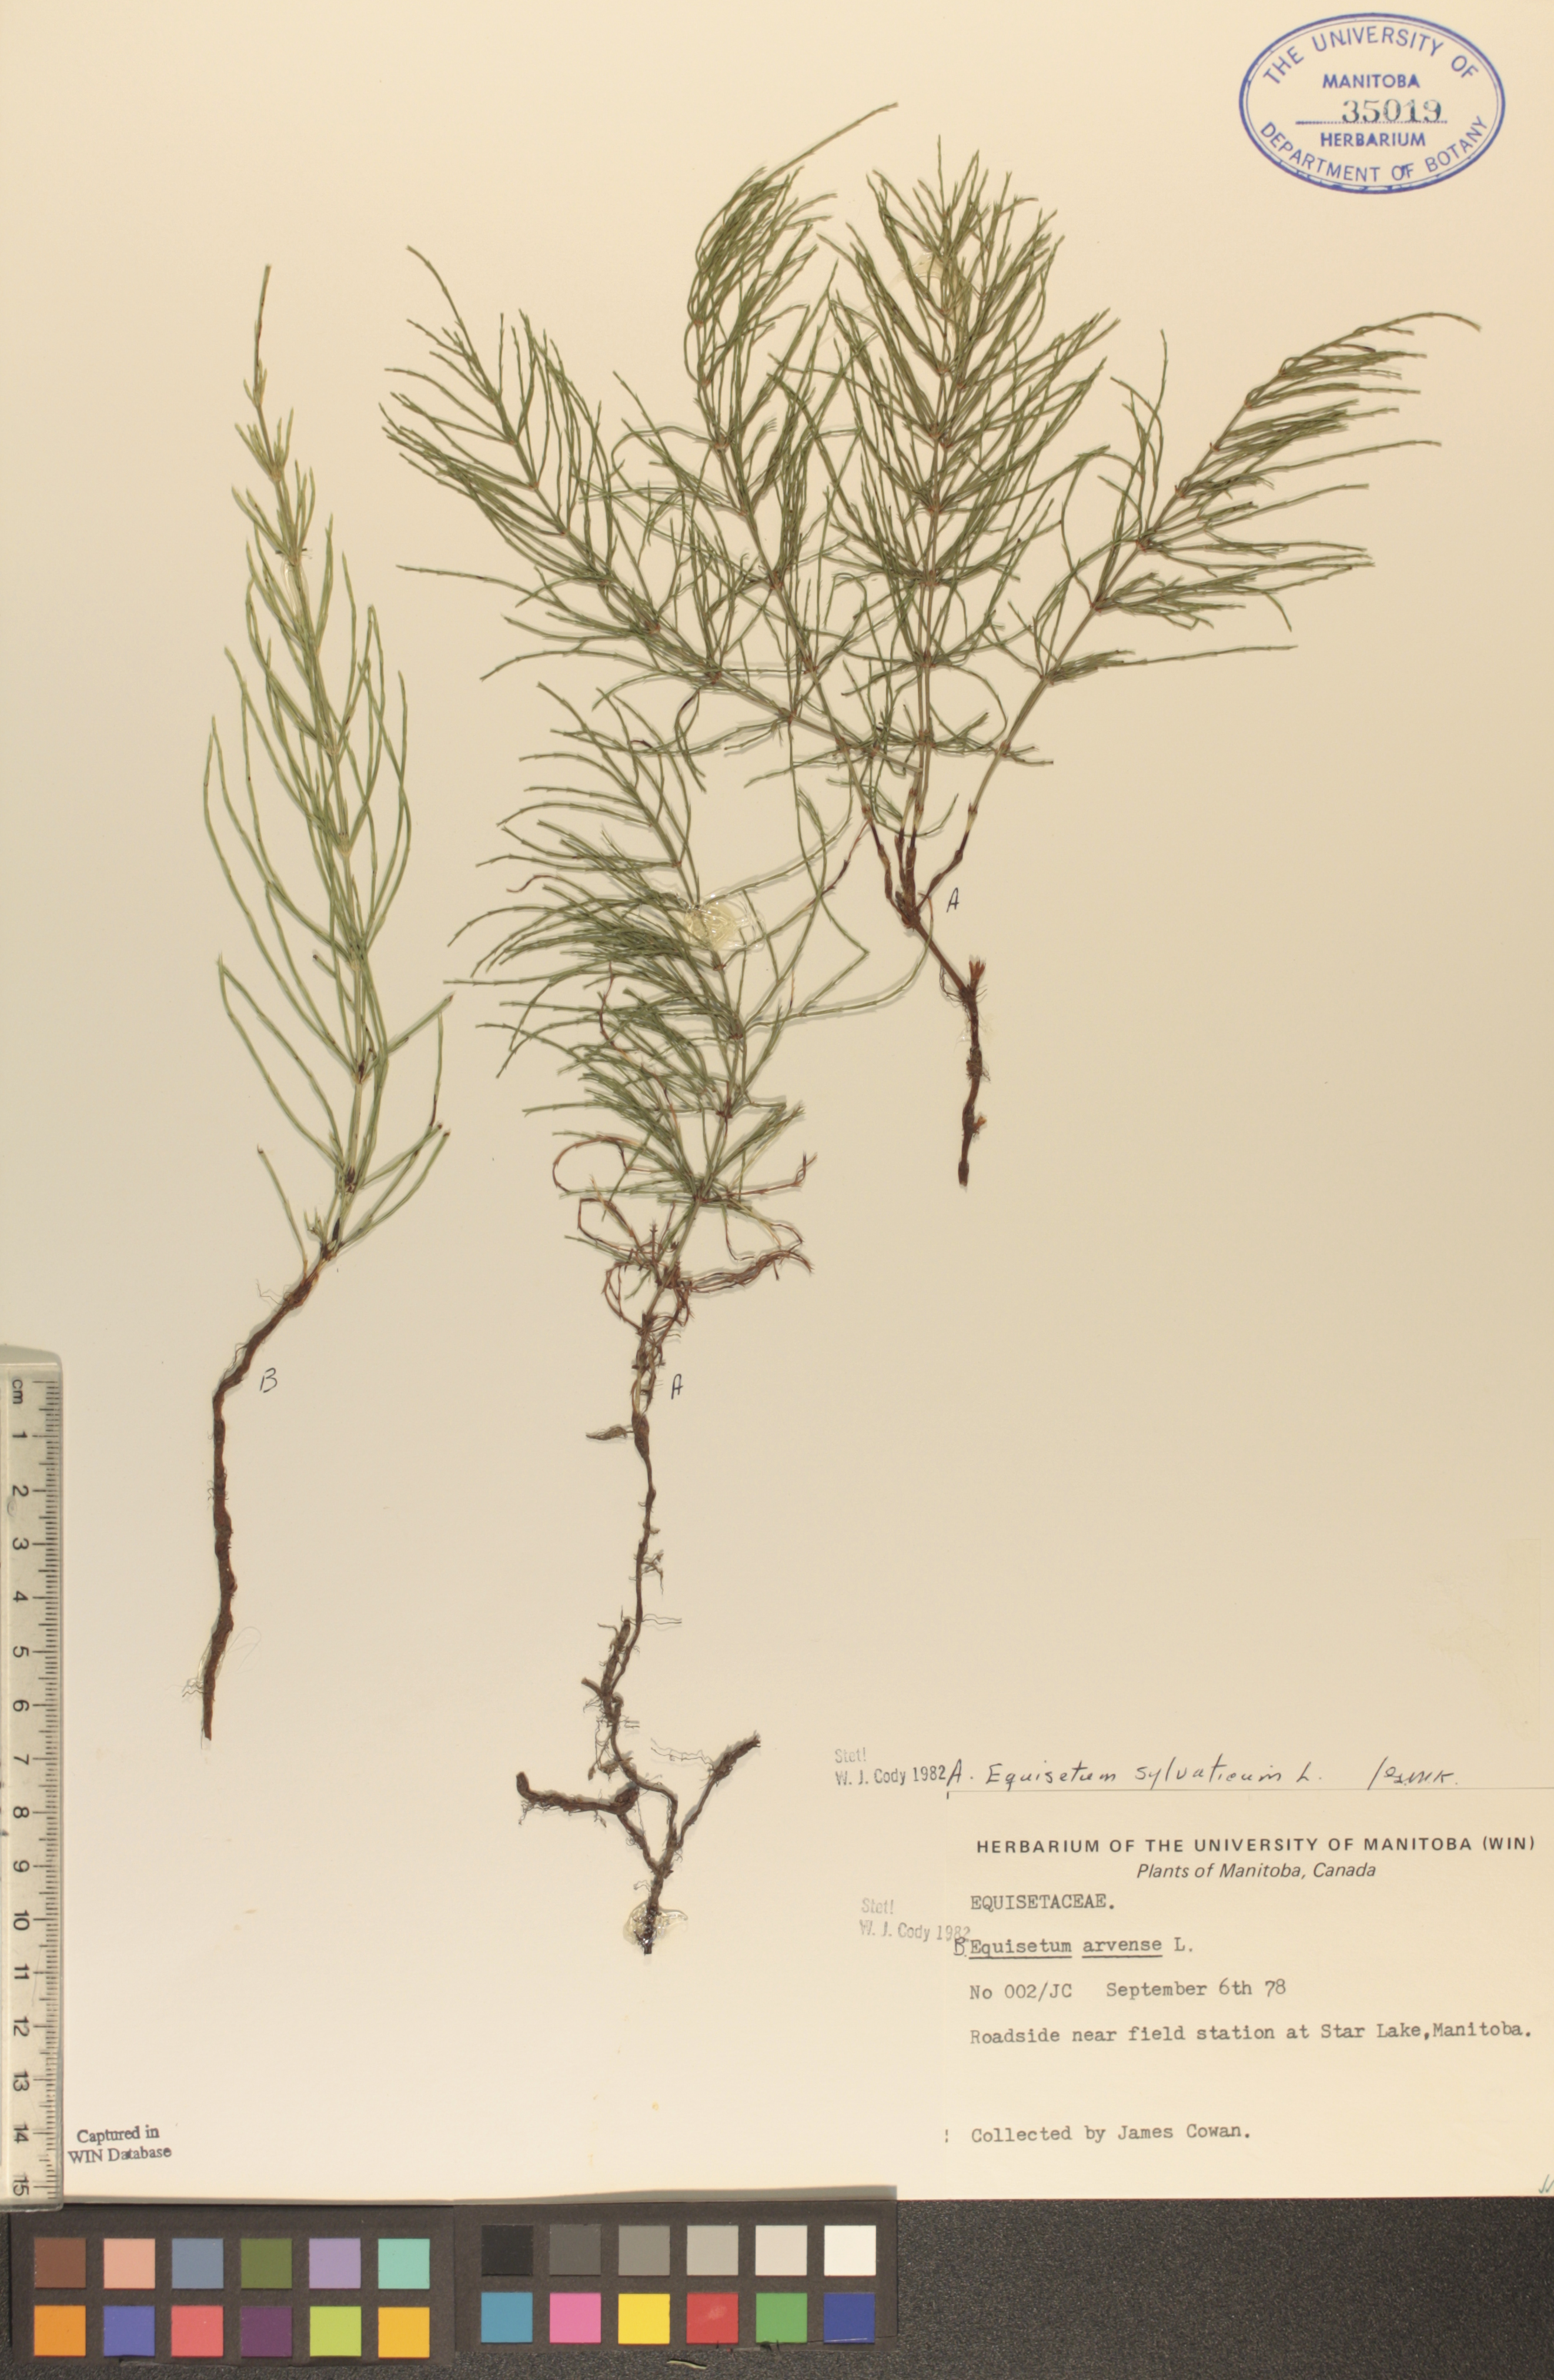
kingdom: Plantae
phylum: Tracheophyta
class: Polypodiopsida
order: Equisetales
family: Equisetaceae
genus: Equisetum
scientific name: Equisetum sylvaticum
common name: Wood horsetail
